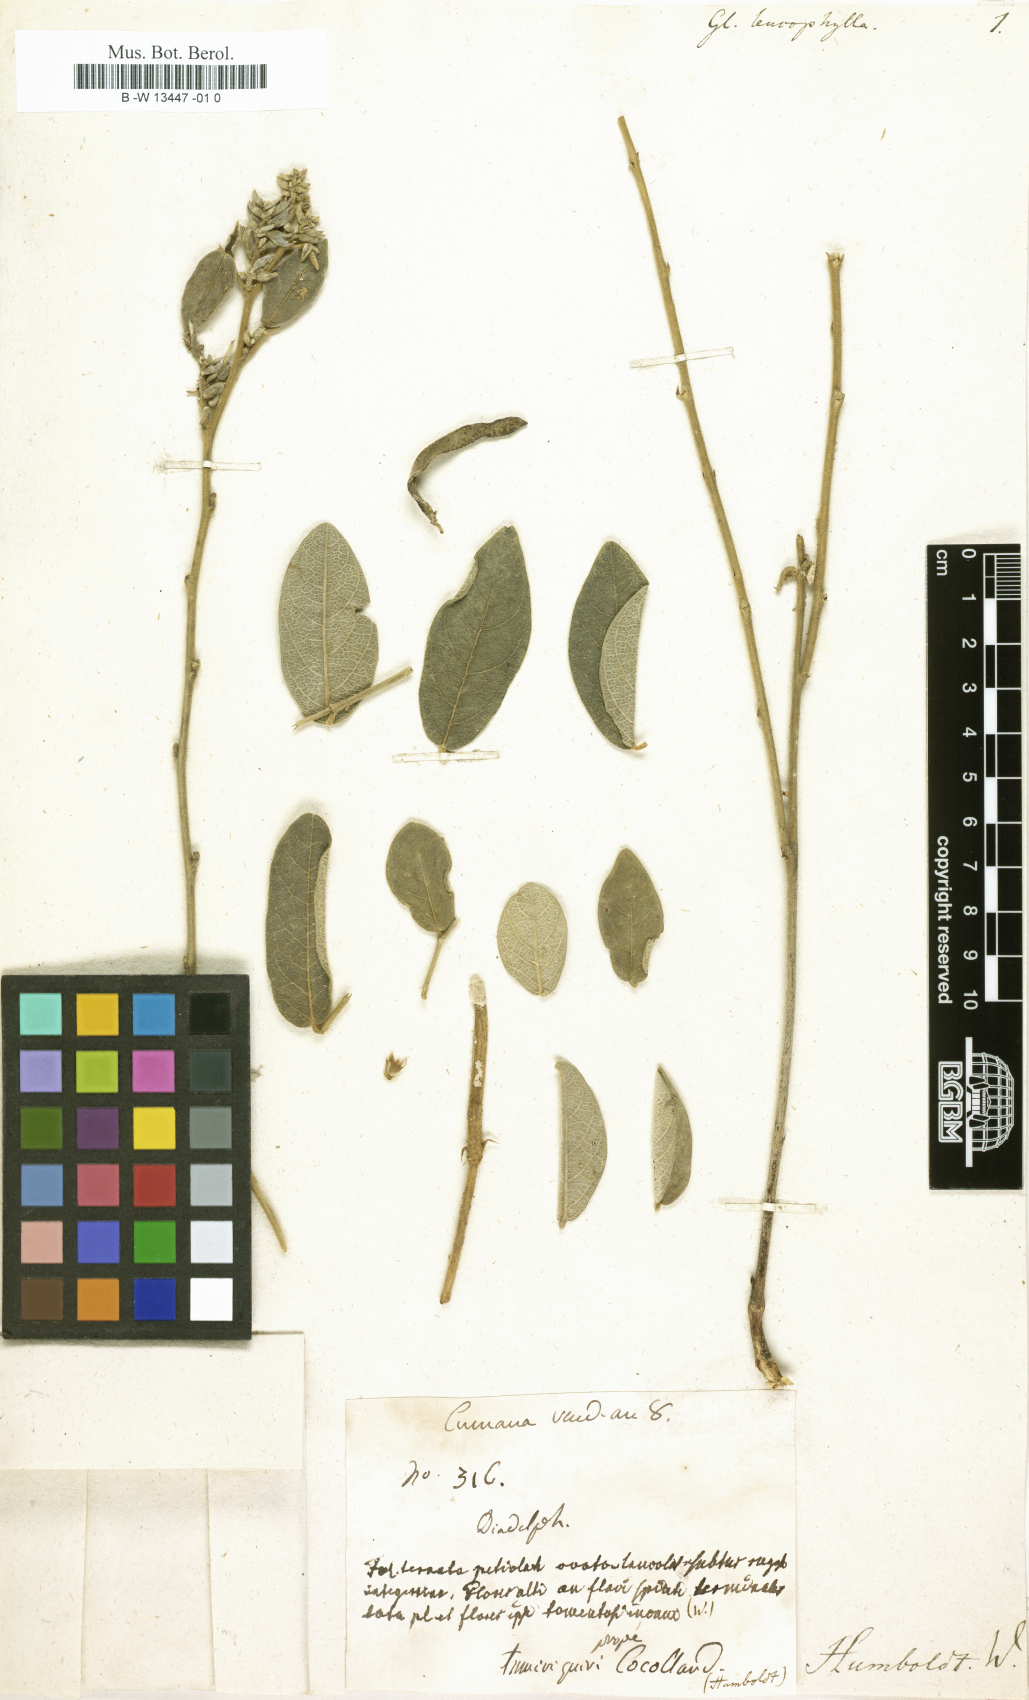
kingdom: Plantae
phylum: Tracheophyta
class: Magnoliopsida
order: Fabales
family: Fabaceae
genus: Glycine
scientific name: Glycine
